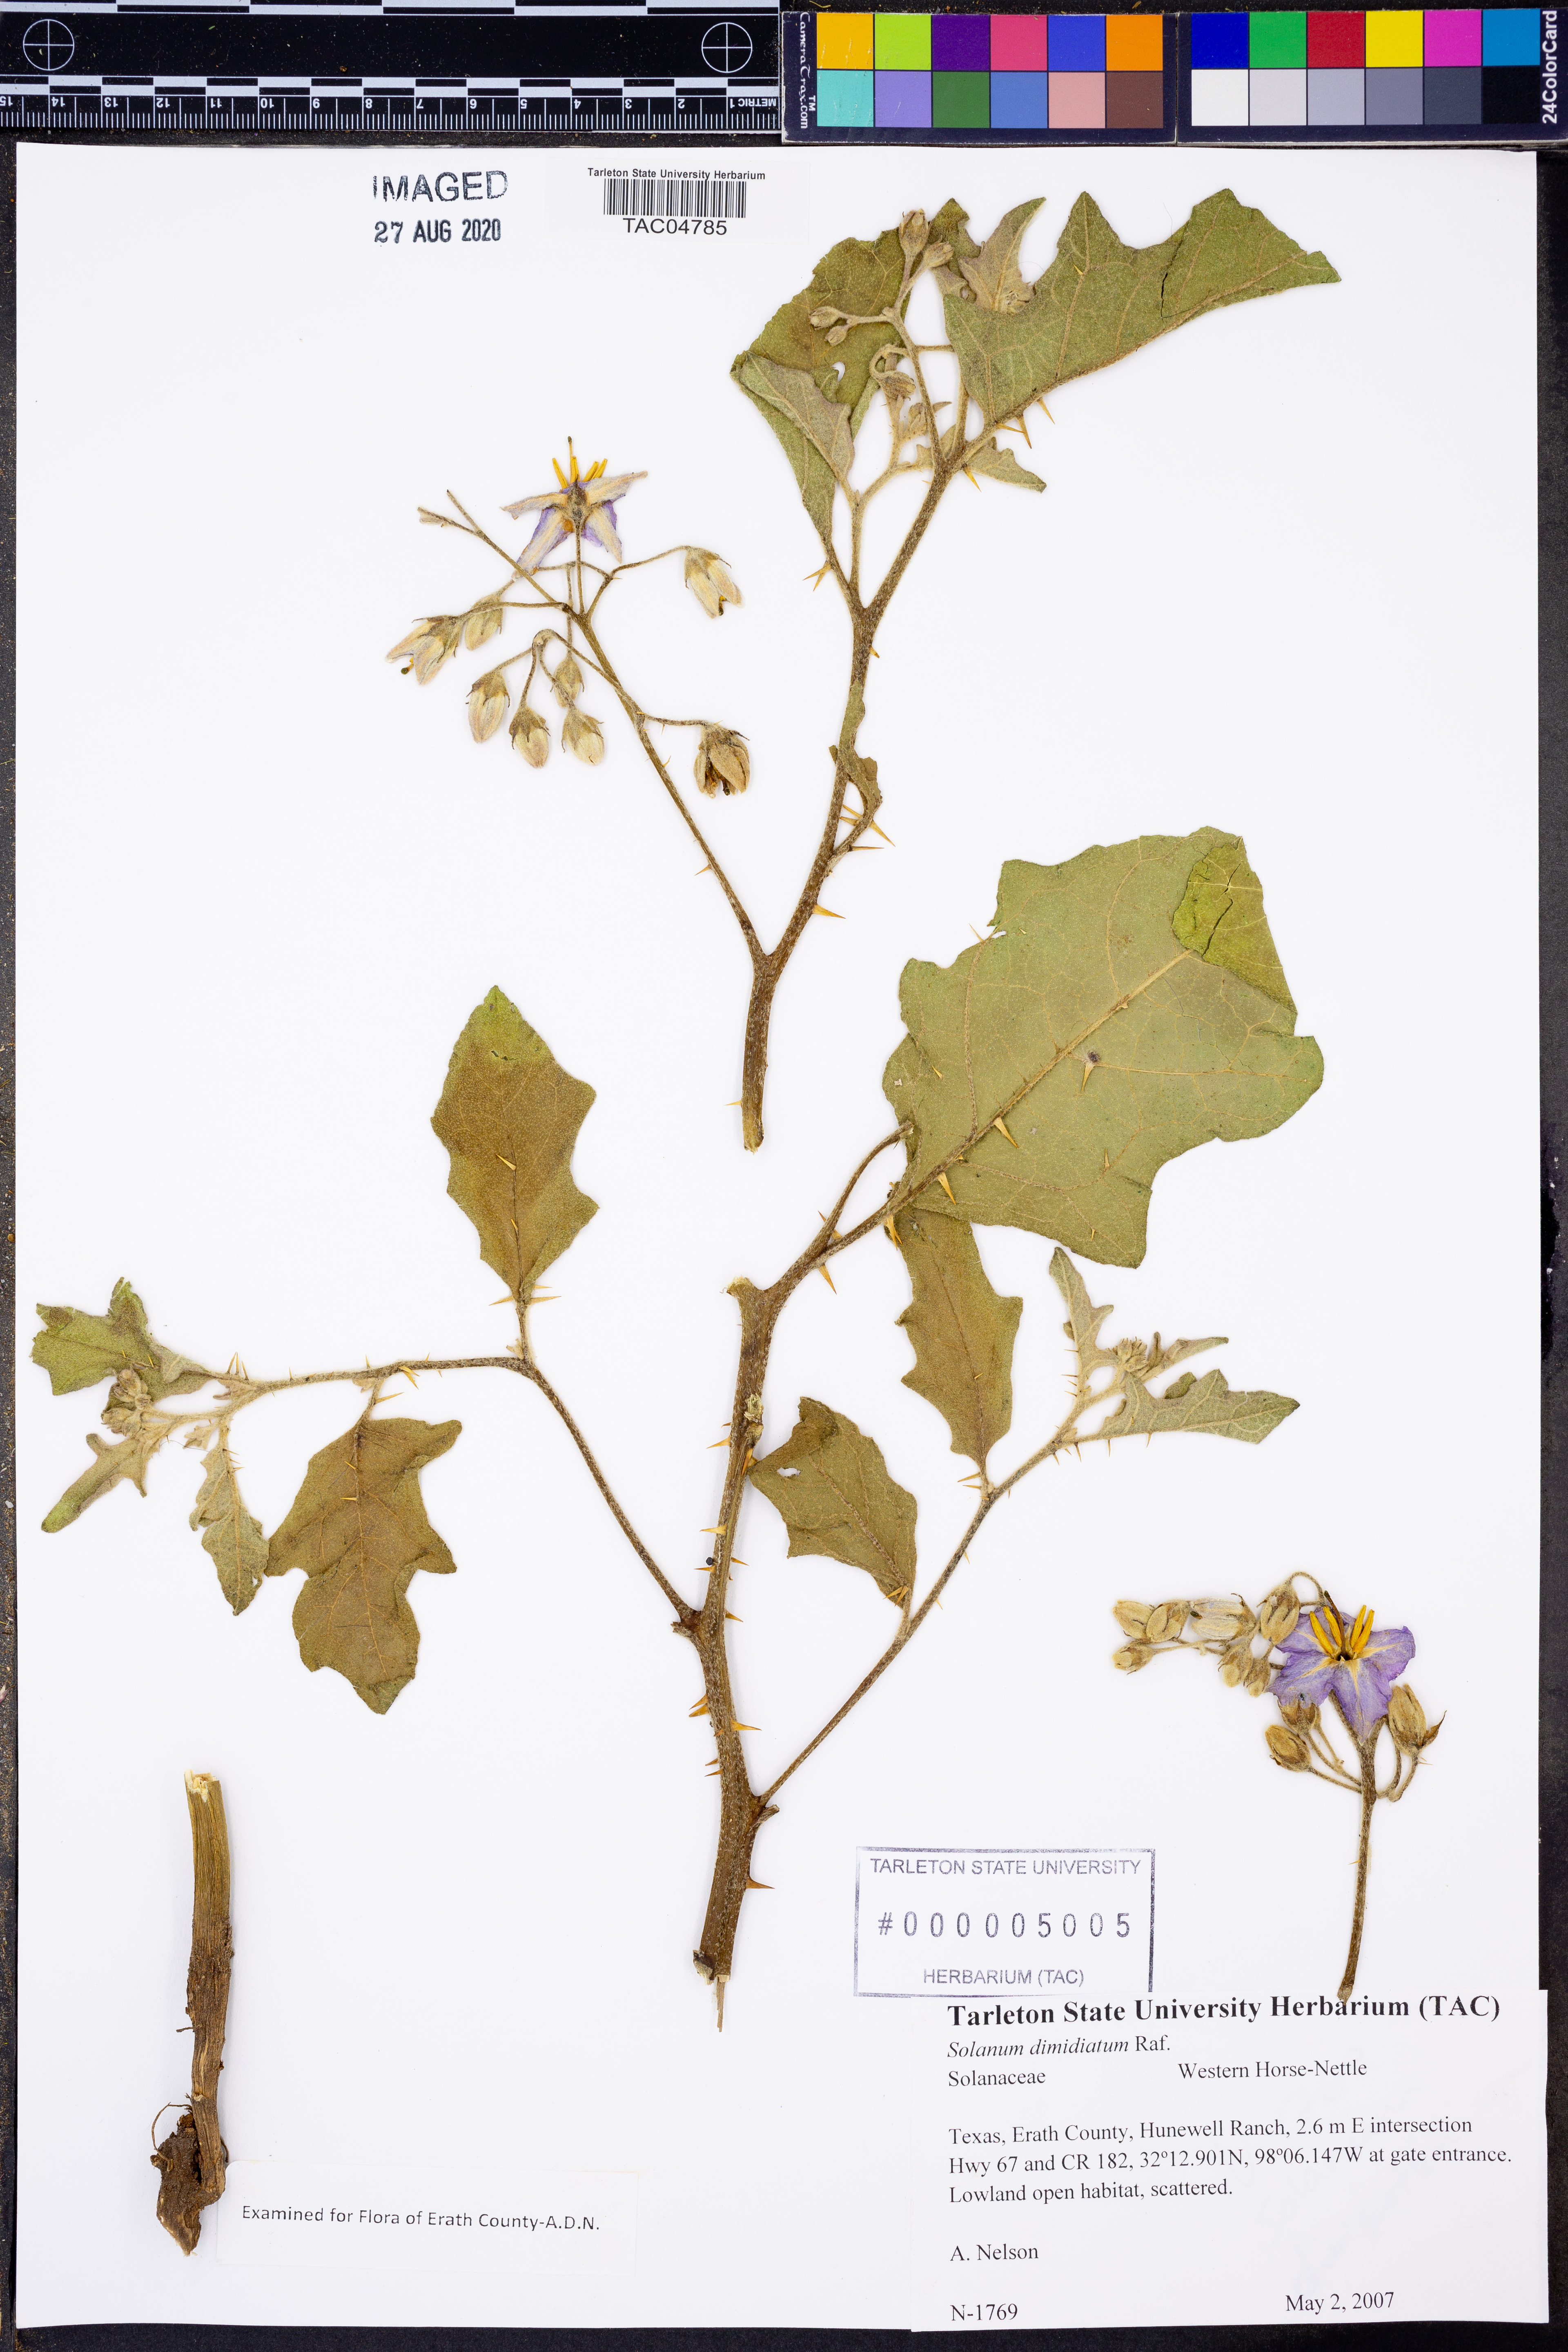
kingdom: Plantae
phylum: Tracheophyta
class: Magnoliopsida
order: Solanales
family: Solanaceae
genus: Solanum
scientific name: Solanum dimidiatum
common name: Carolina horse-nettle
